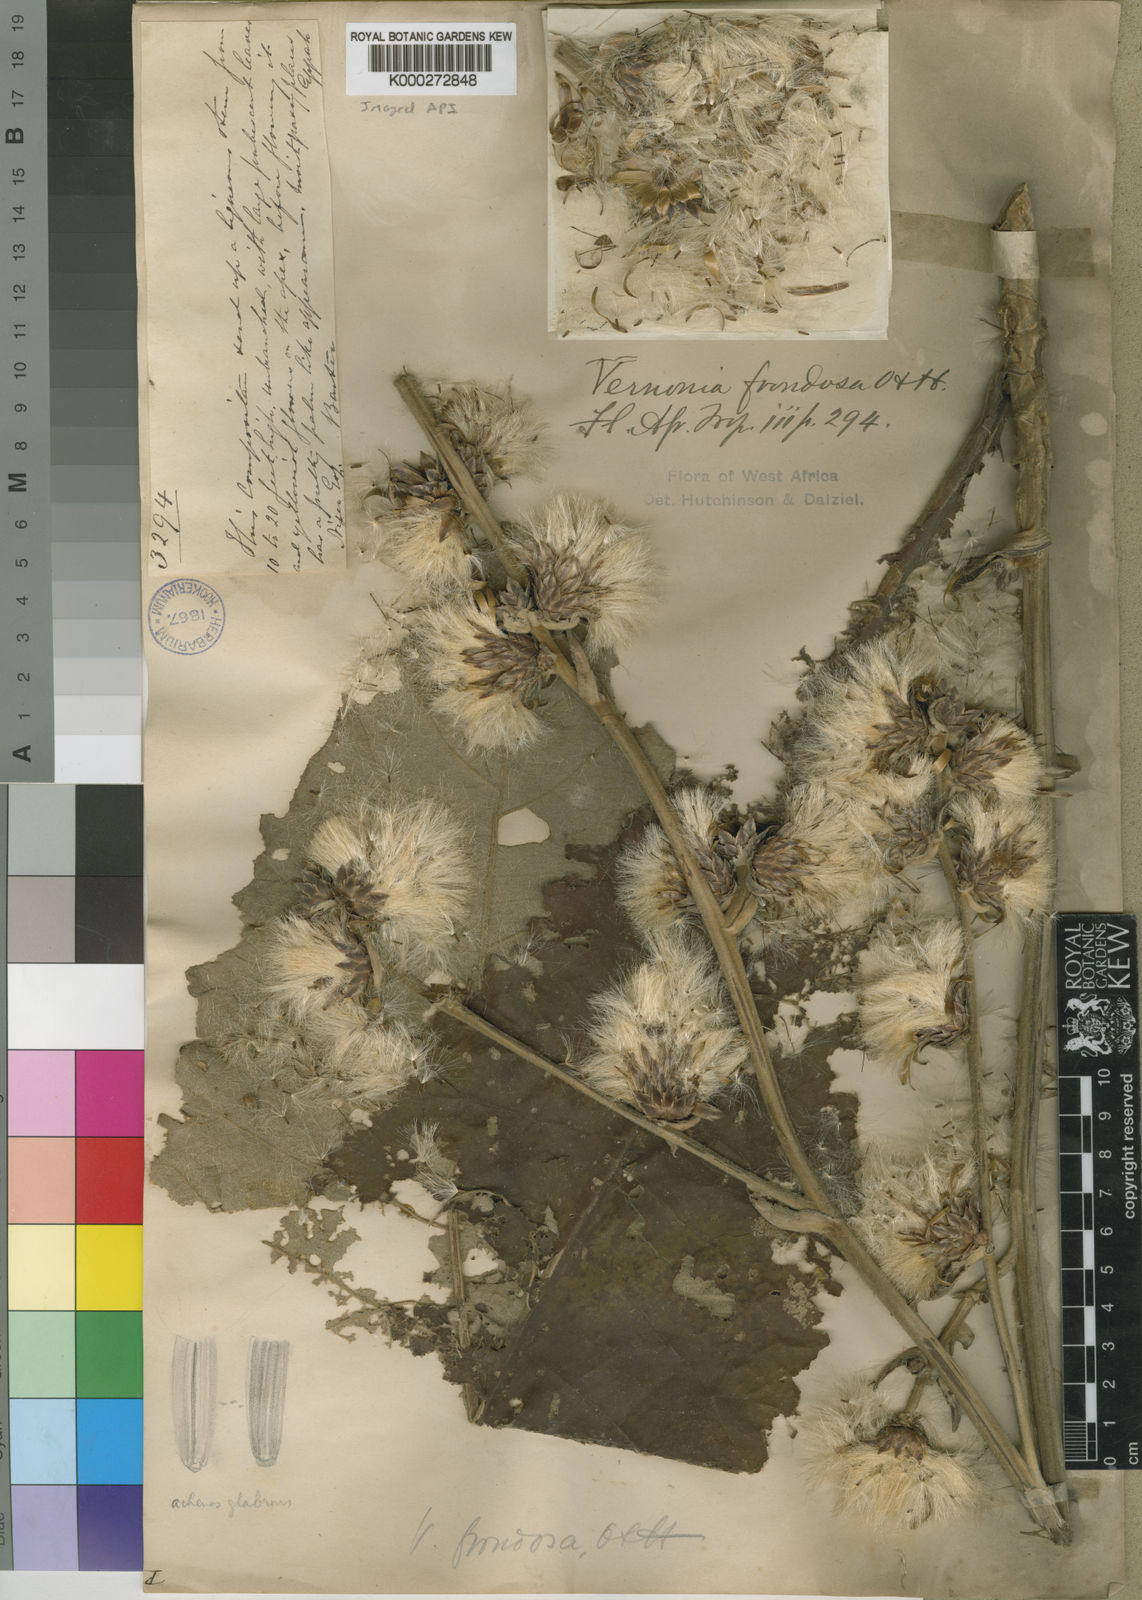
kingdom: Plantae
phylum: Tracheophyta
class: Magnoliopsida
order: Asterales
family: Asteraceae
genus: Brenandendron
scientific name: Brenandendron frondosum
